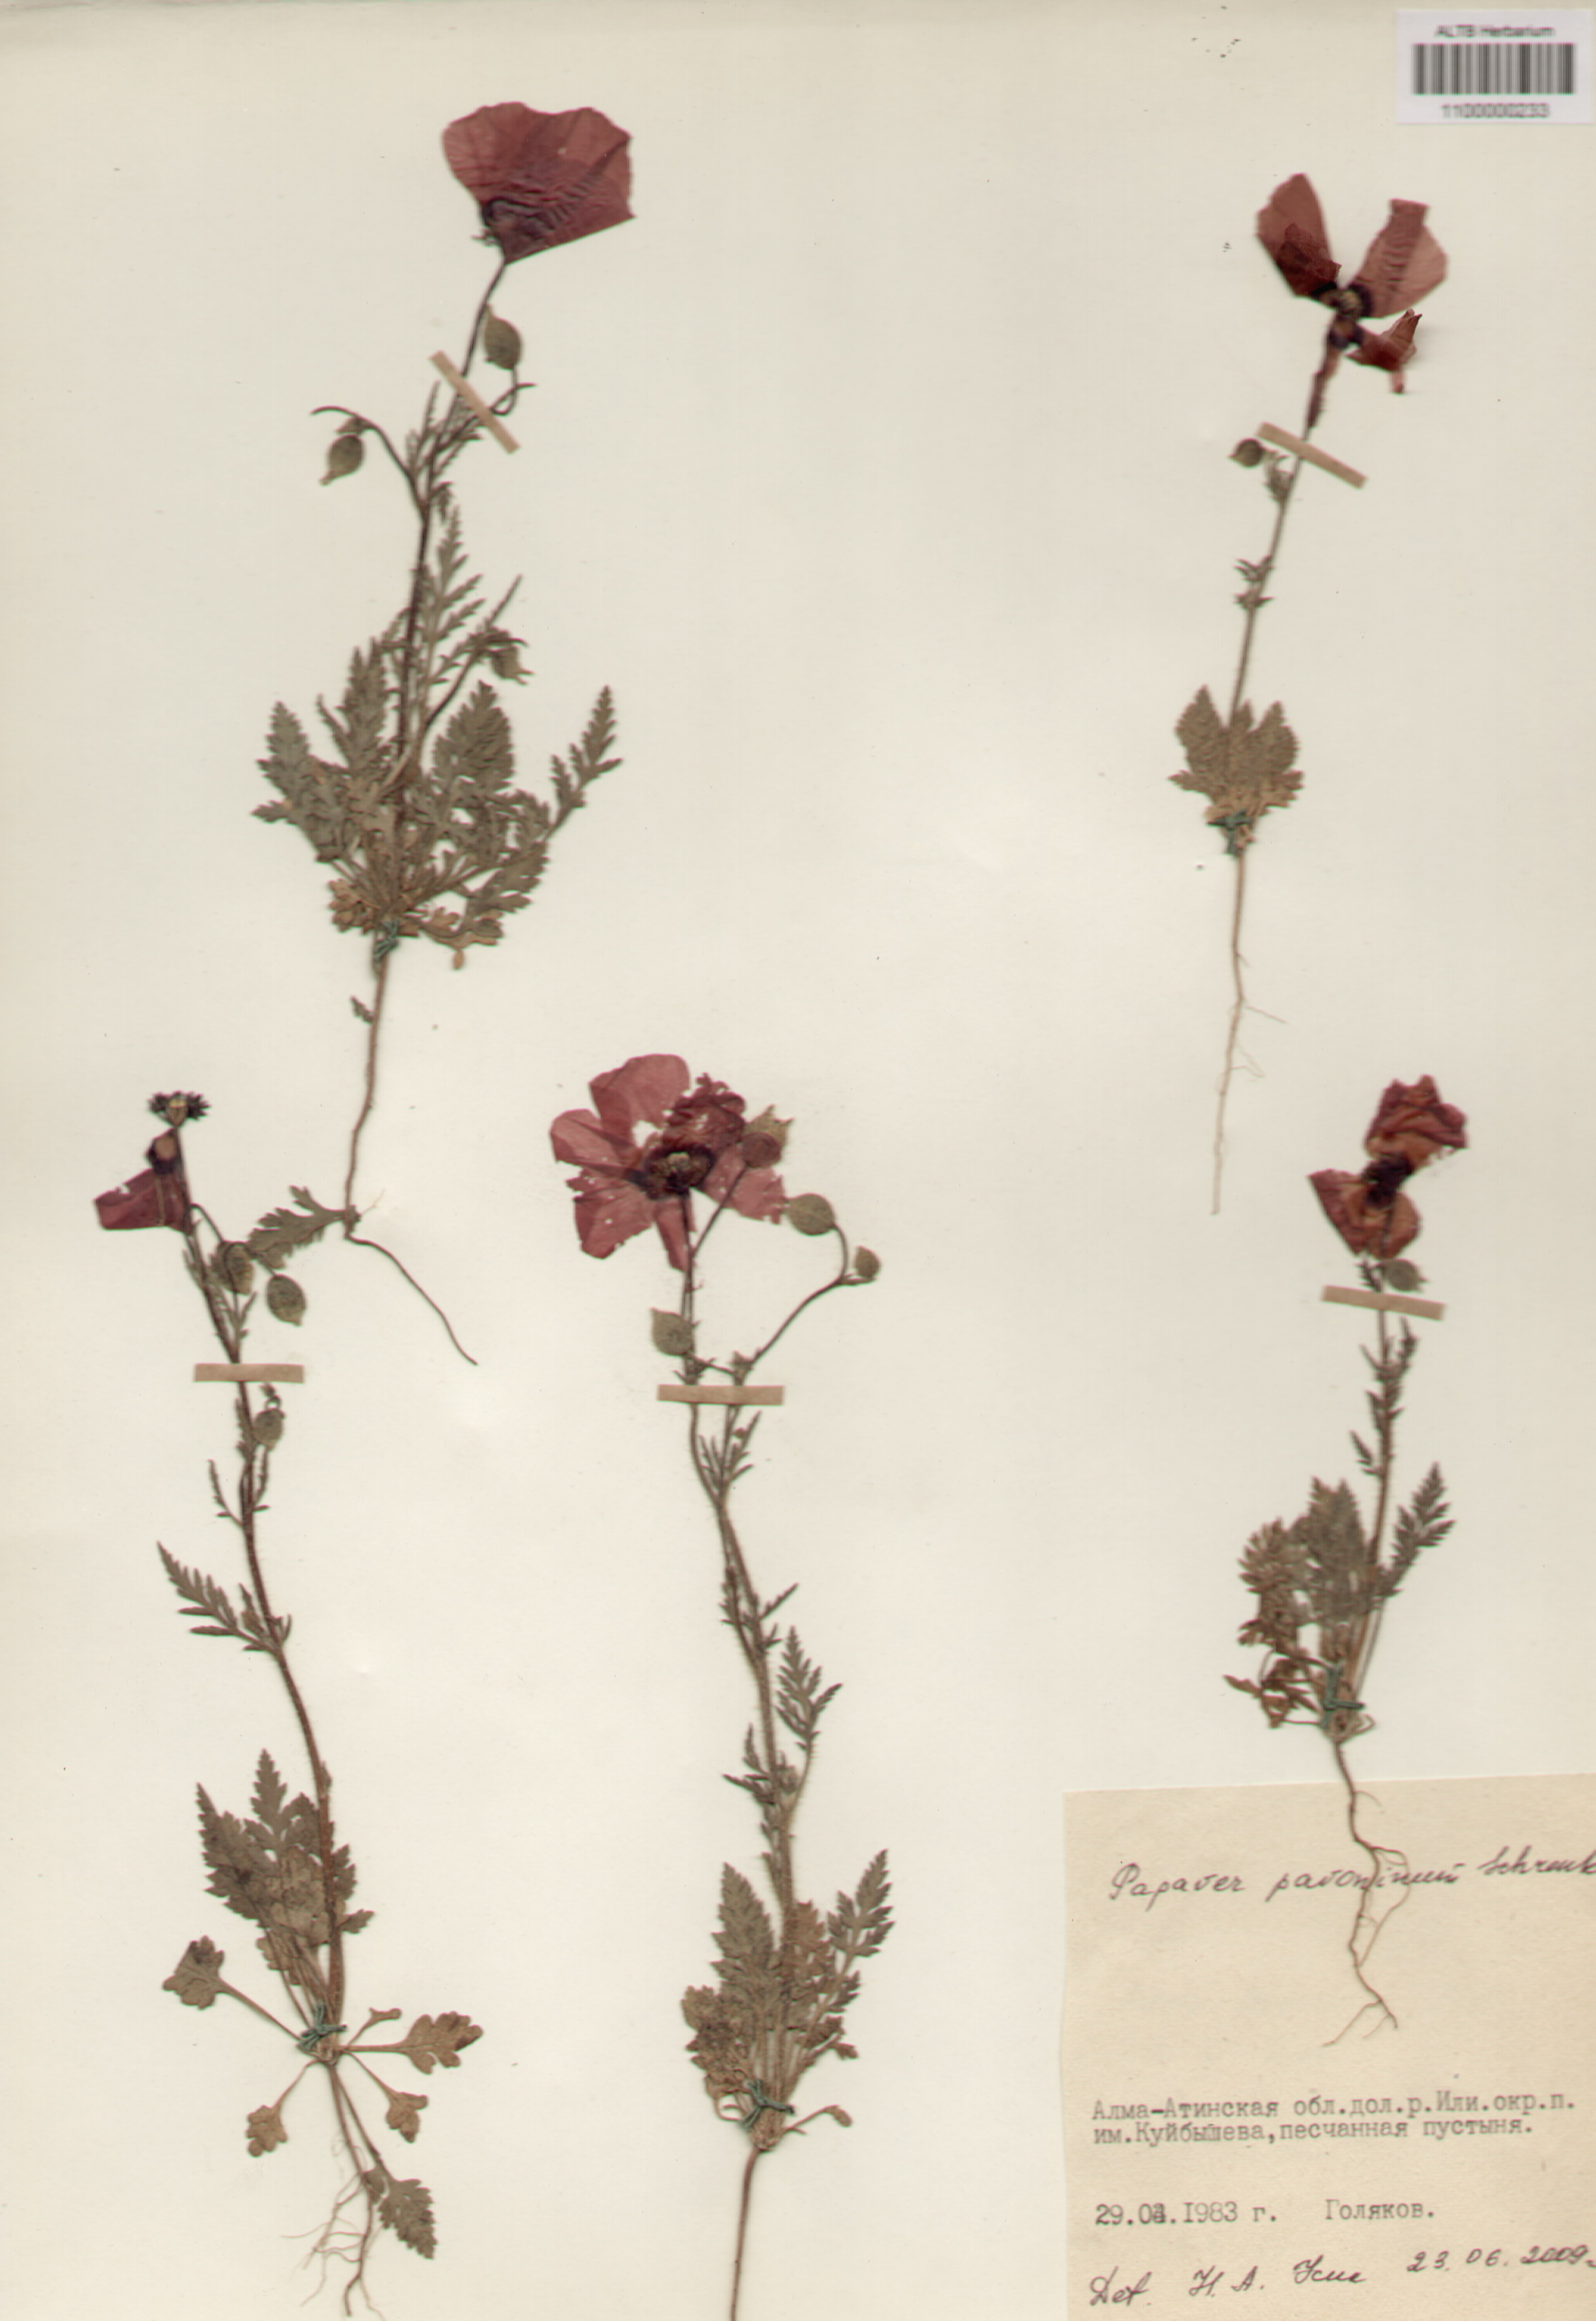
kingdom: Plantae
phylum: Tracheophyta
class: Magnoliopsida
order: Ranunculales
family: Papaveraceae
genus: Papaver
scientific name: Papaver pavoninum
